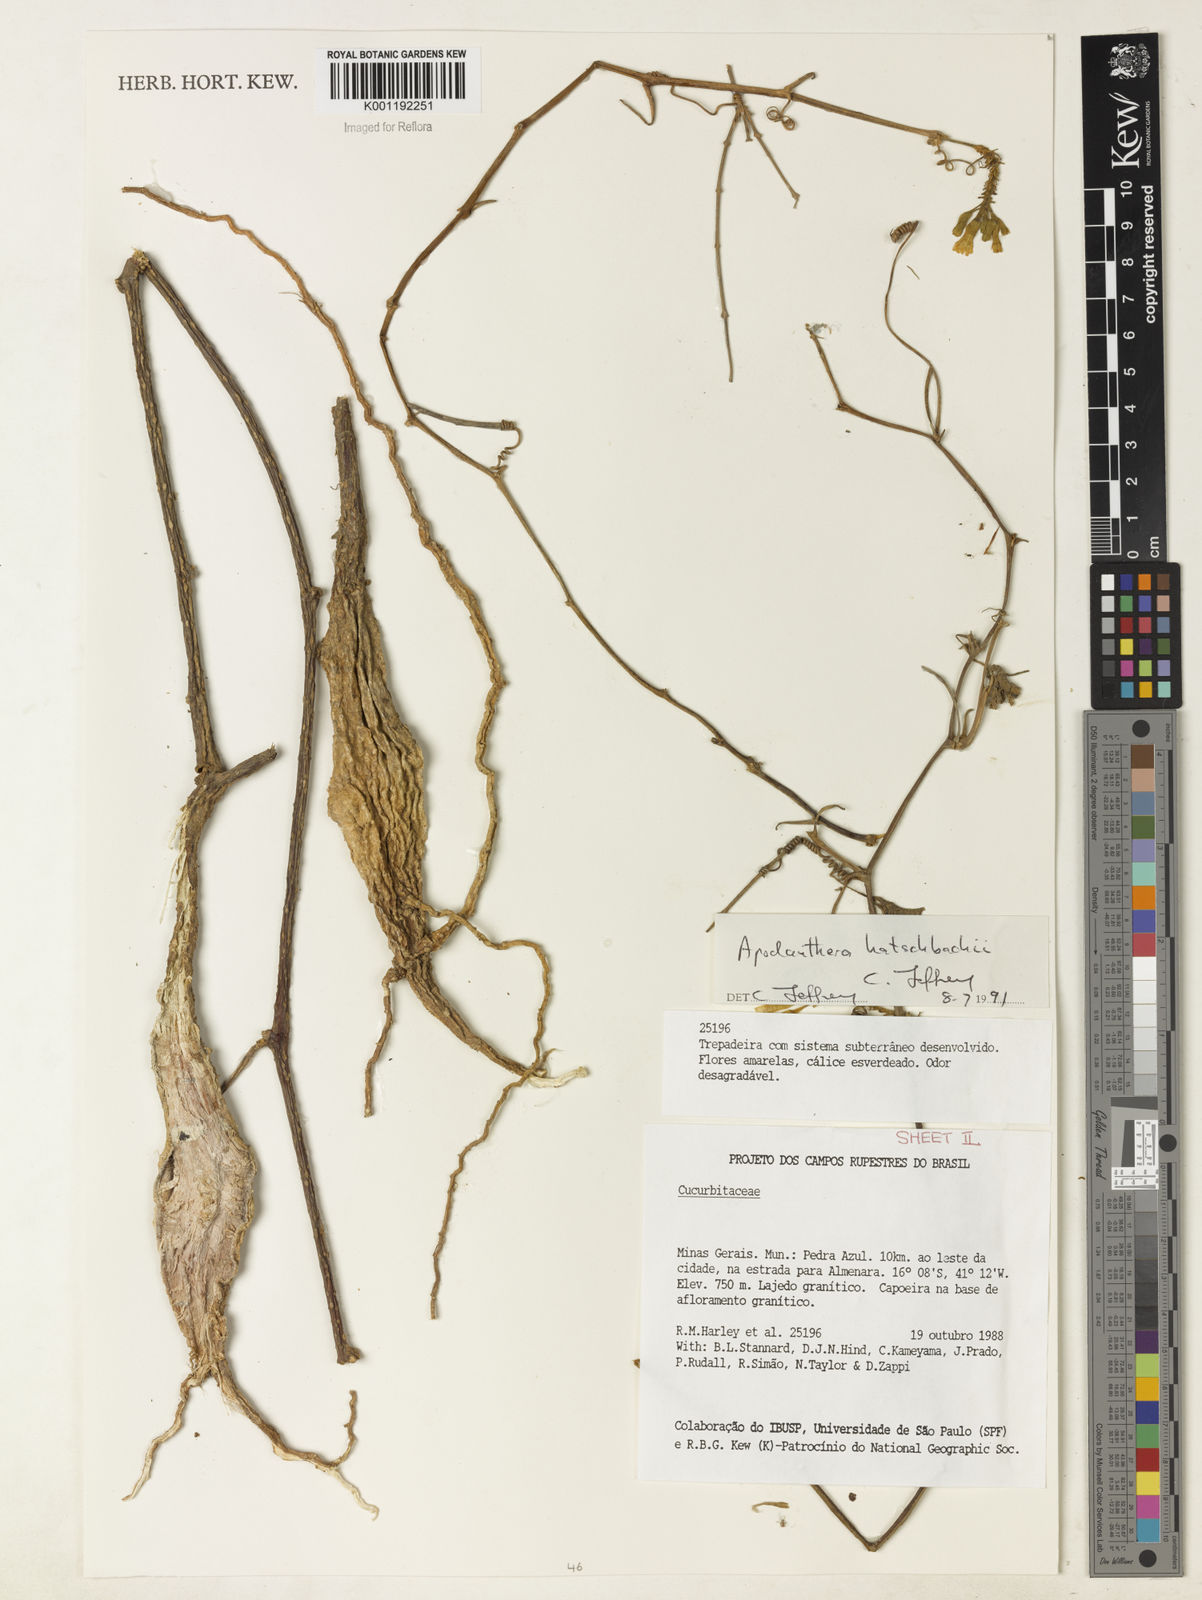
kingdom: Plantae
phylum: Tracheophyta
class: Magnoliopsida
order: Cucurbitales
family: Cucurbitaceae
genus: Apodanthera
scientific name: Apodanthera bradei
